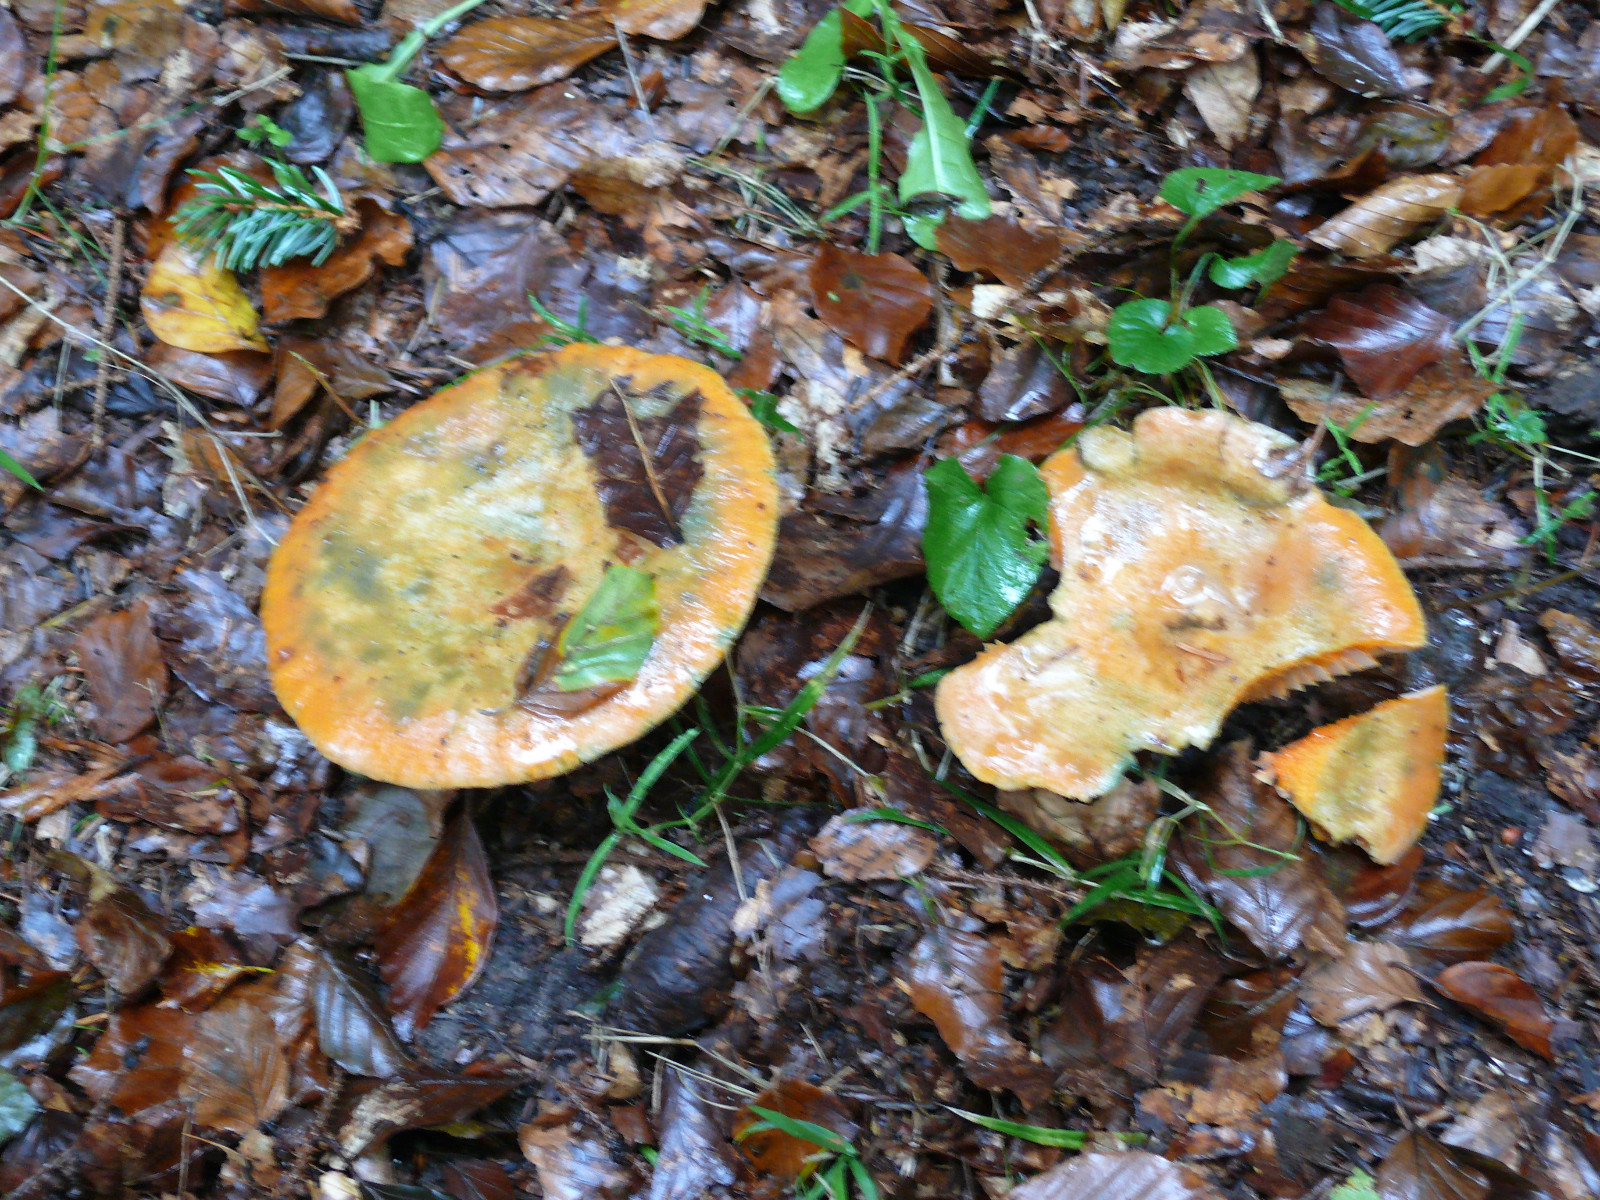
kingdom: Fungi
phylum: Basidiomycota
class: Agaricomycetes
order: Russulales
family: Russulaceae
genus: Lactarius
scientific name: Lactarius deterrimus
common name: gran-mælkehat
